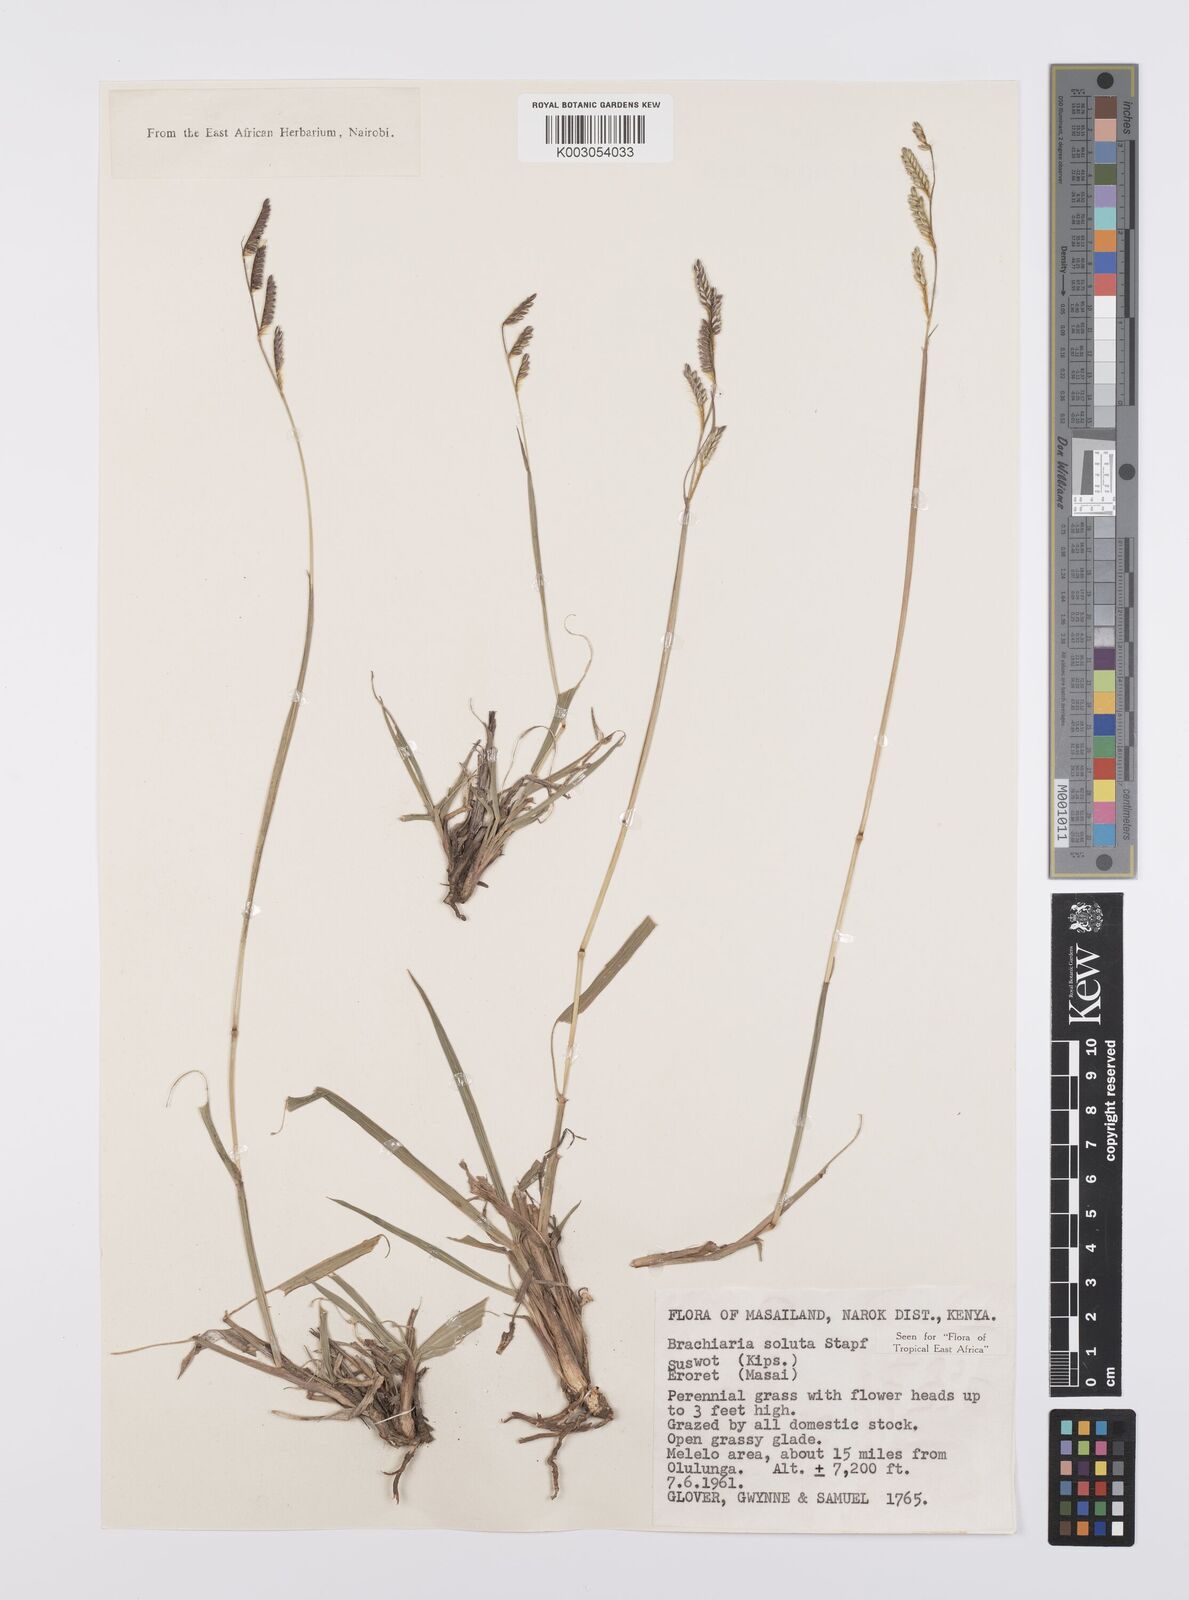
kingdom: Plantae
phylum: Tracheophyta
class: Liliopsida
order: Poales
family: Poaceae
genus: Urochloa
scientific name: Urochloa jubata
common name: Buffalograss
